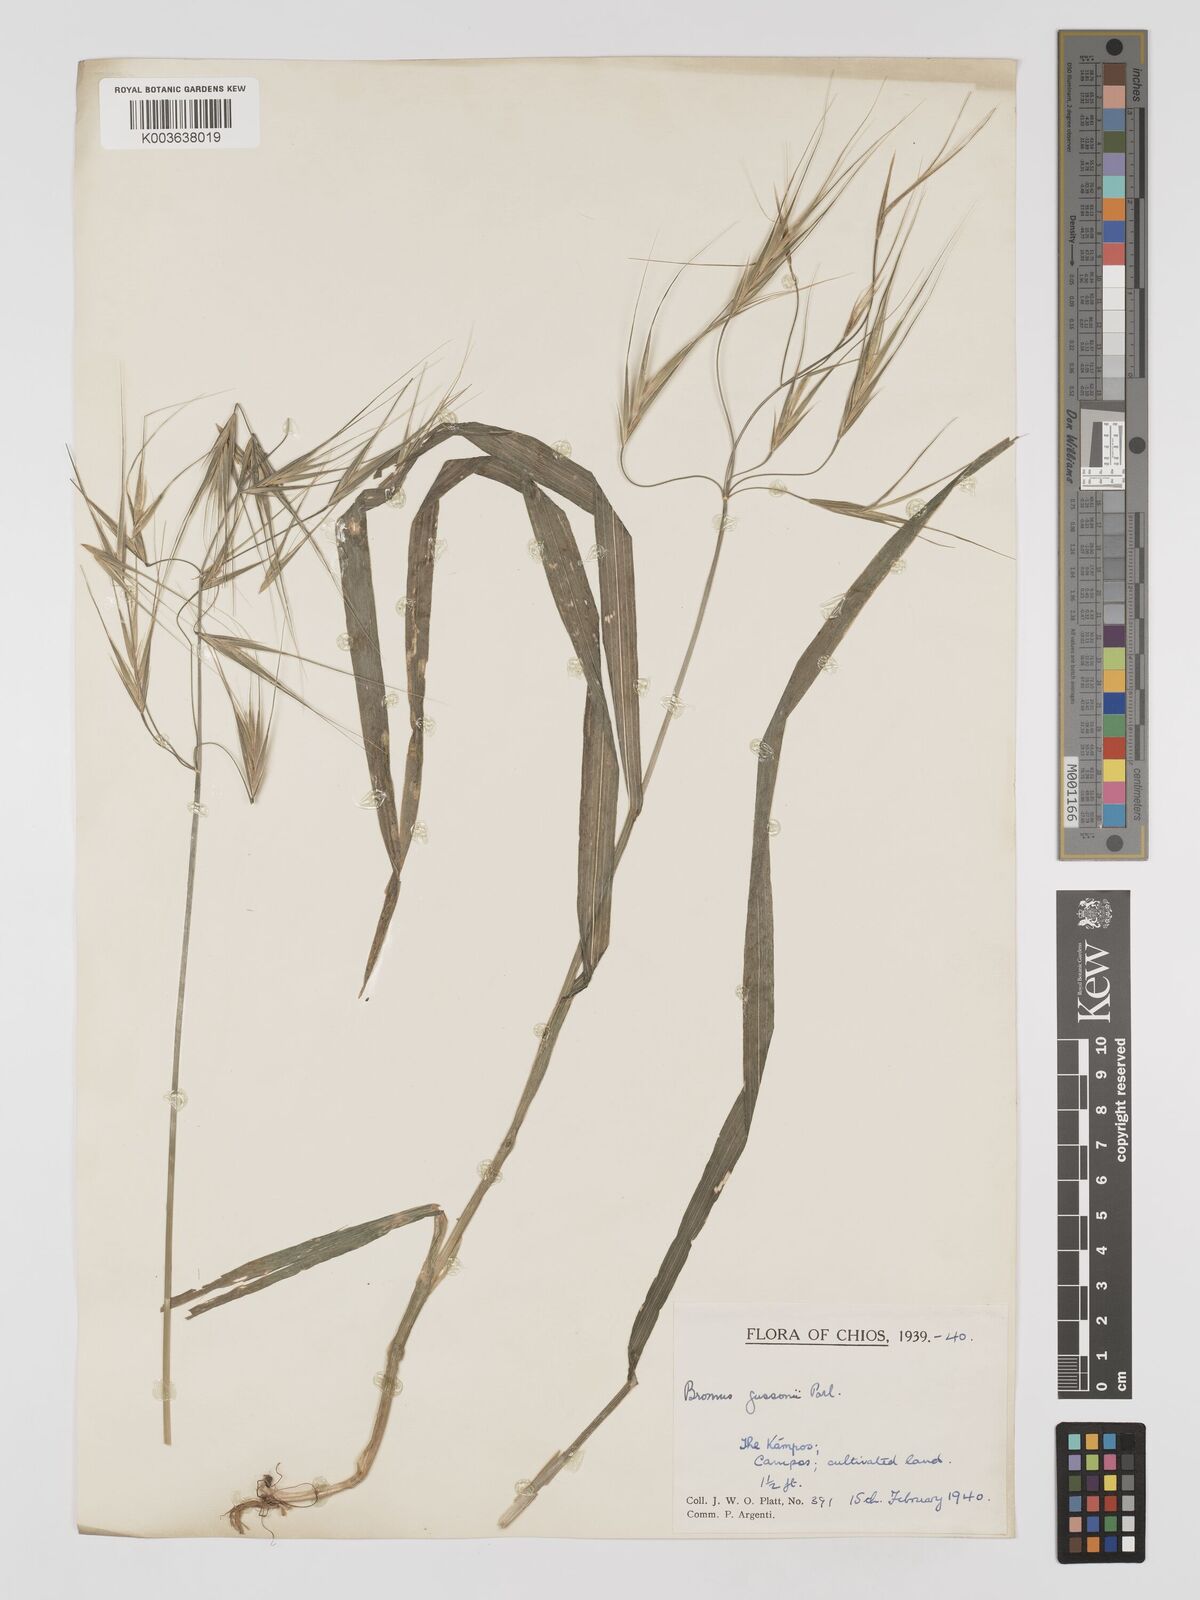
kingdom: Plantae
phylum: Tracheophyta
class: Liliopsida
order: Poales
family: Poaceae
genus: Bromus
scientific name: Bromus
